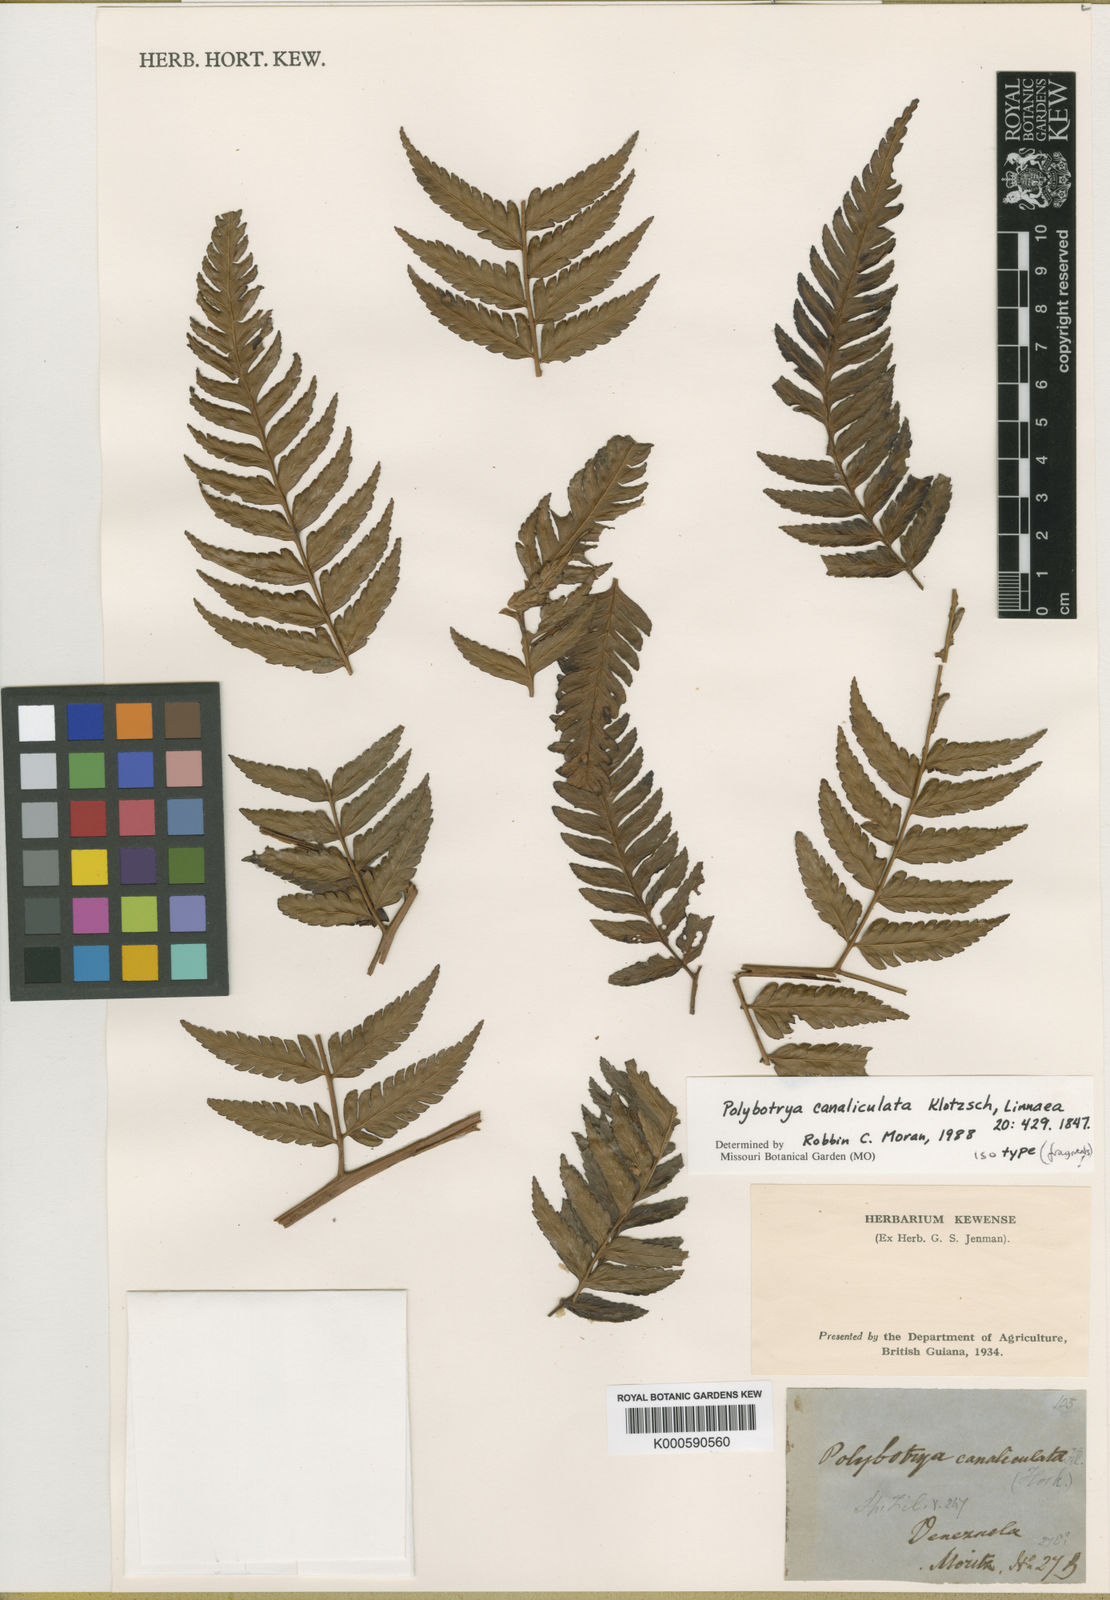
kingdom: Plantae
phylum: Tracheophyta
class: Polypodiopsida
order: Polypodiales
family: Dryopteridaceae
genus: Polybotrya
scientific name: Polybotrya canaliculata
